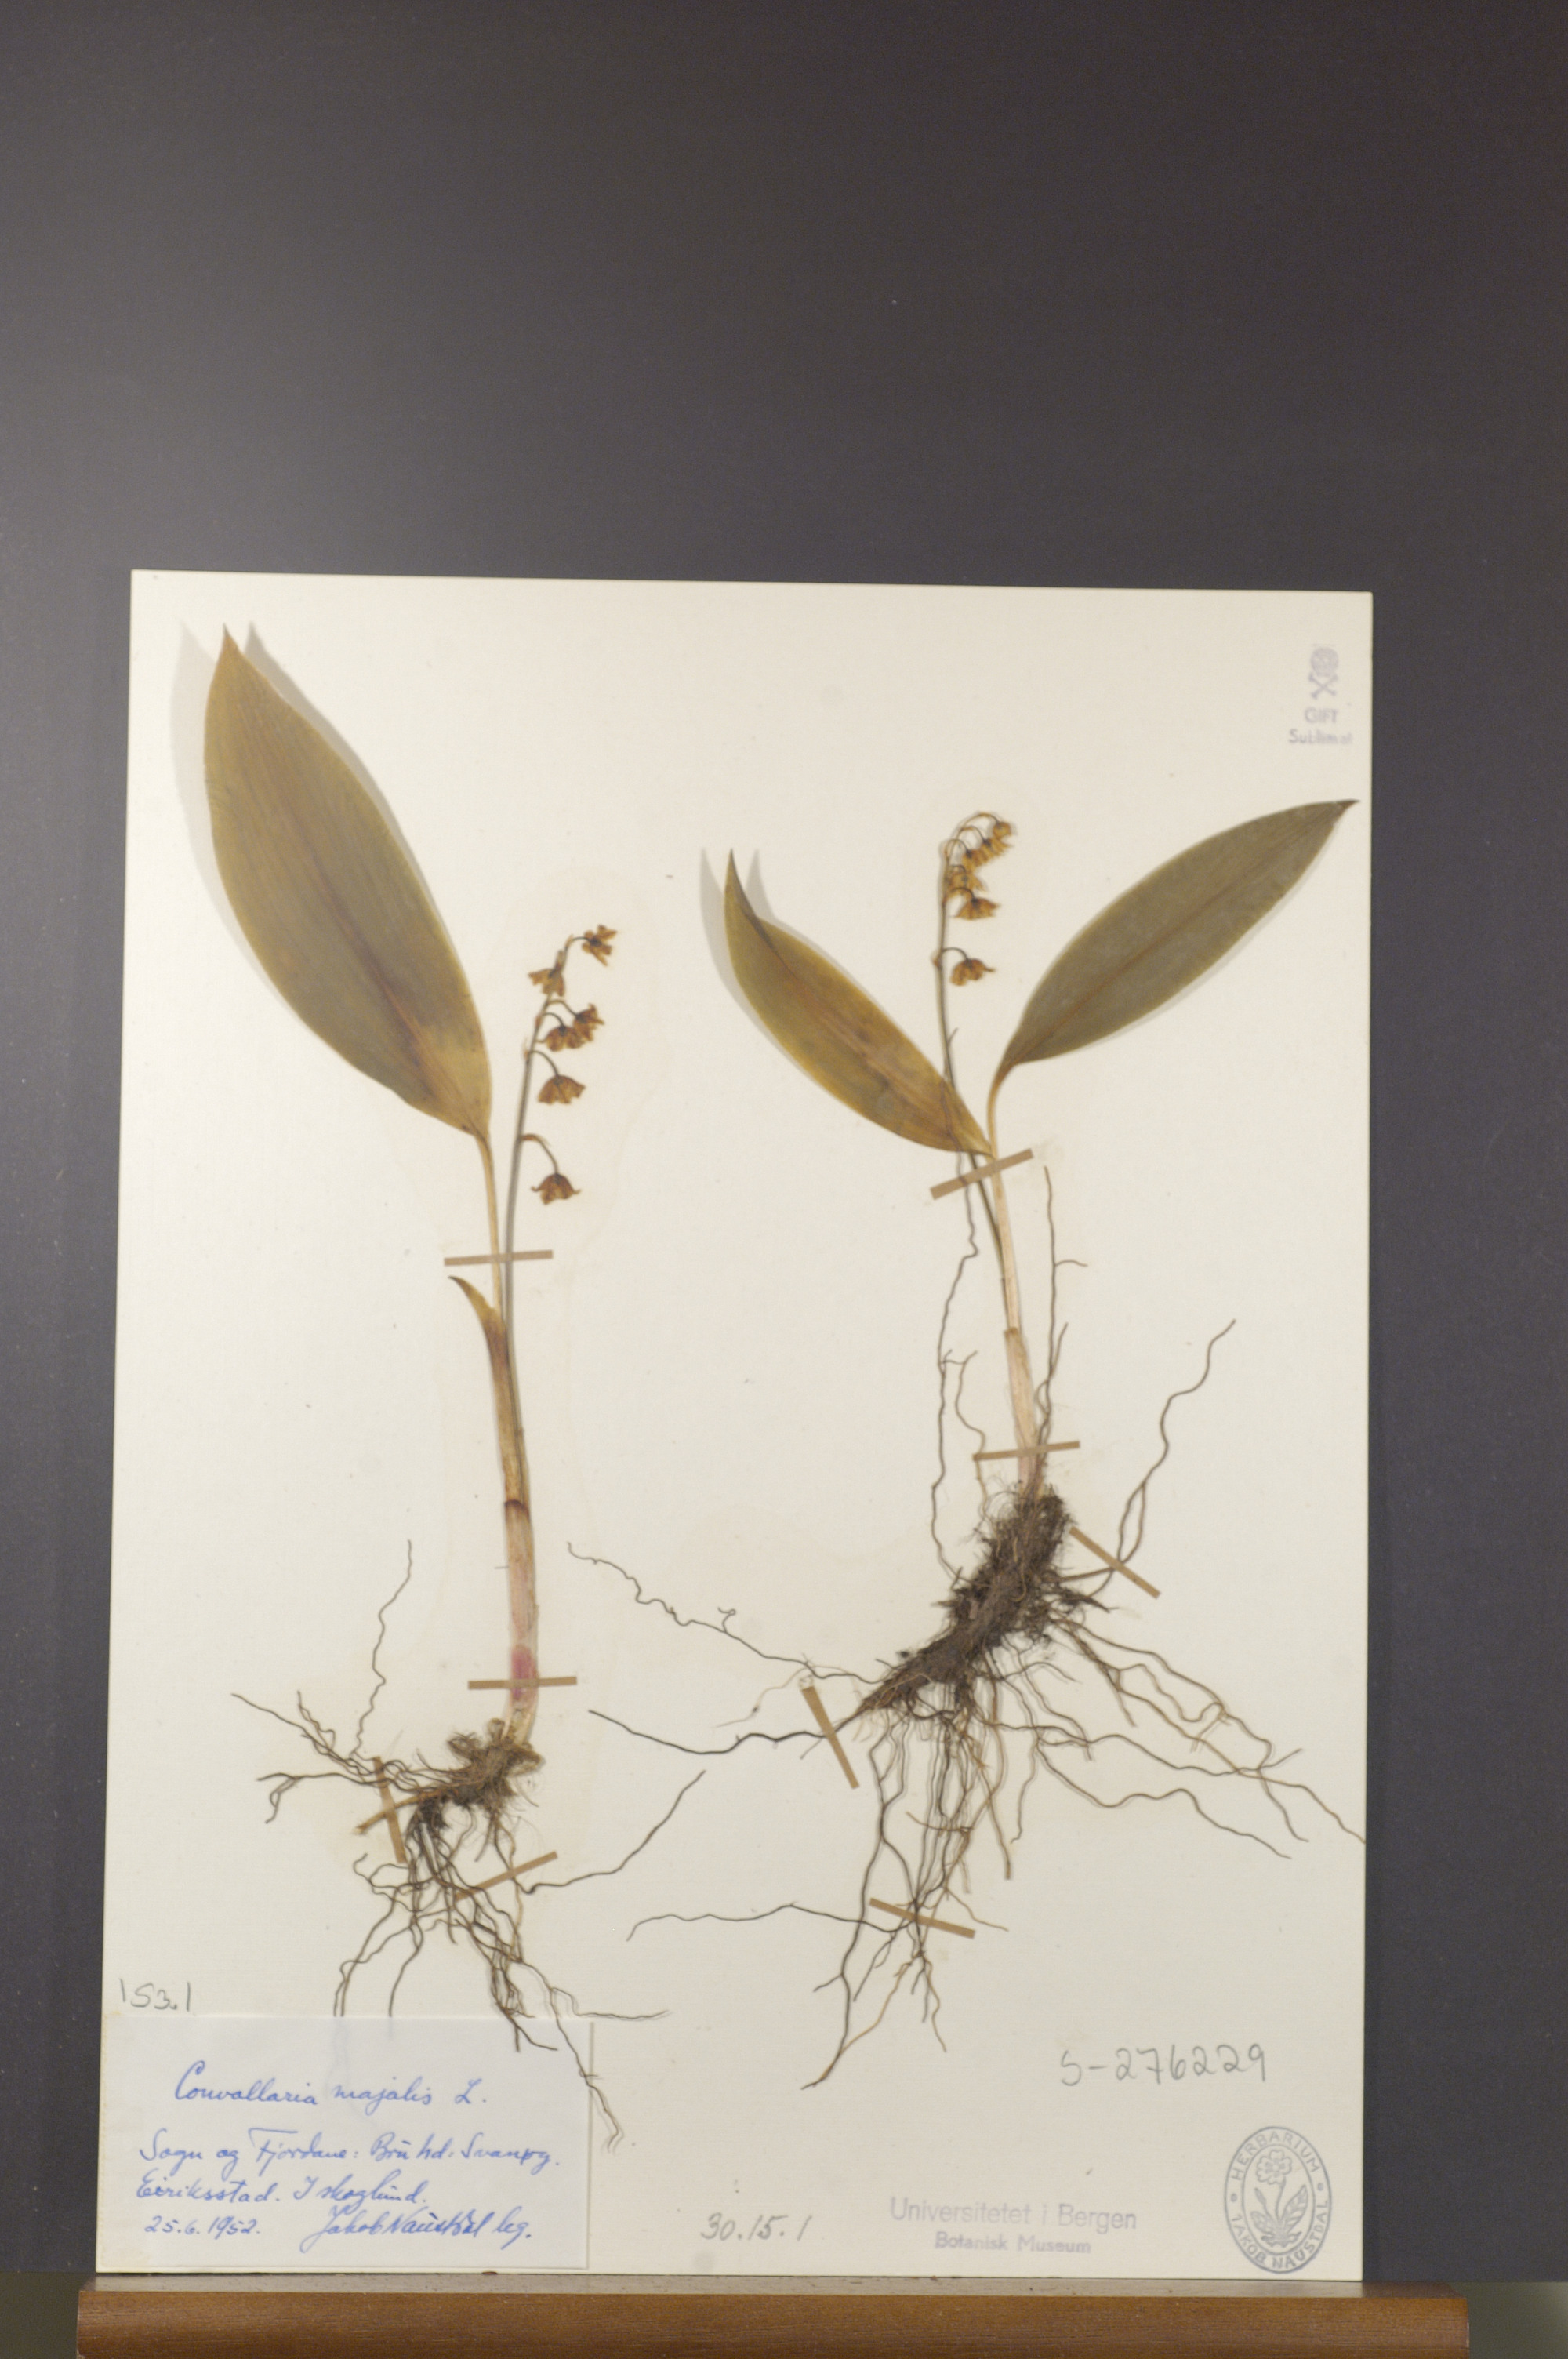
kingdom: Plantae
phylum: Tracheophyta
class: Liliopsida
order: Asparagales
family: Asparagaceae
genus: Convallaria
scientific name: Convallaria majalis
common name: Lily-of-the-valley
